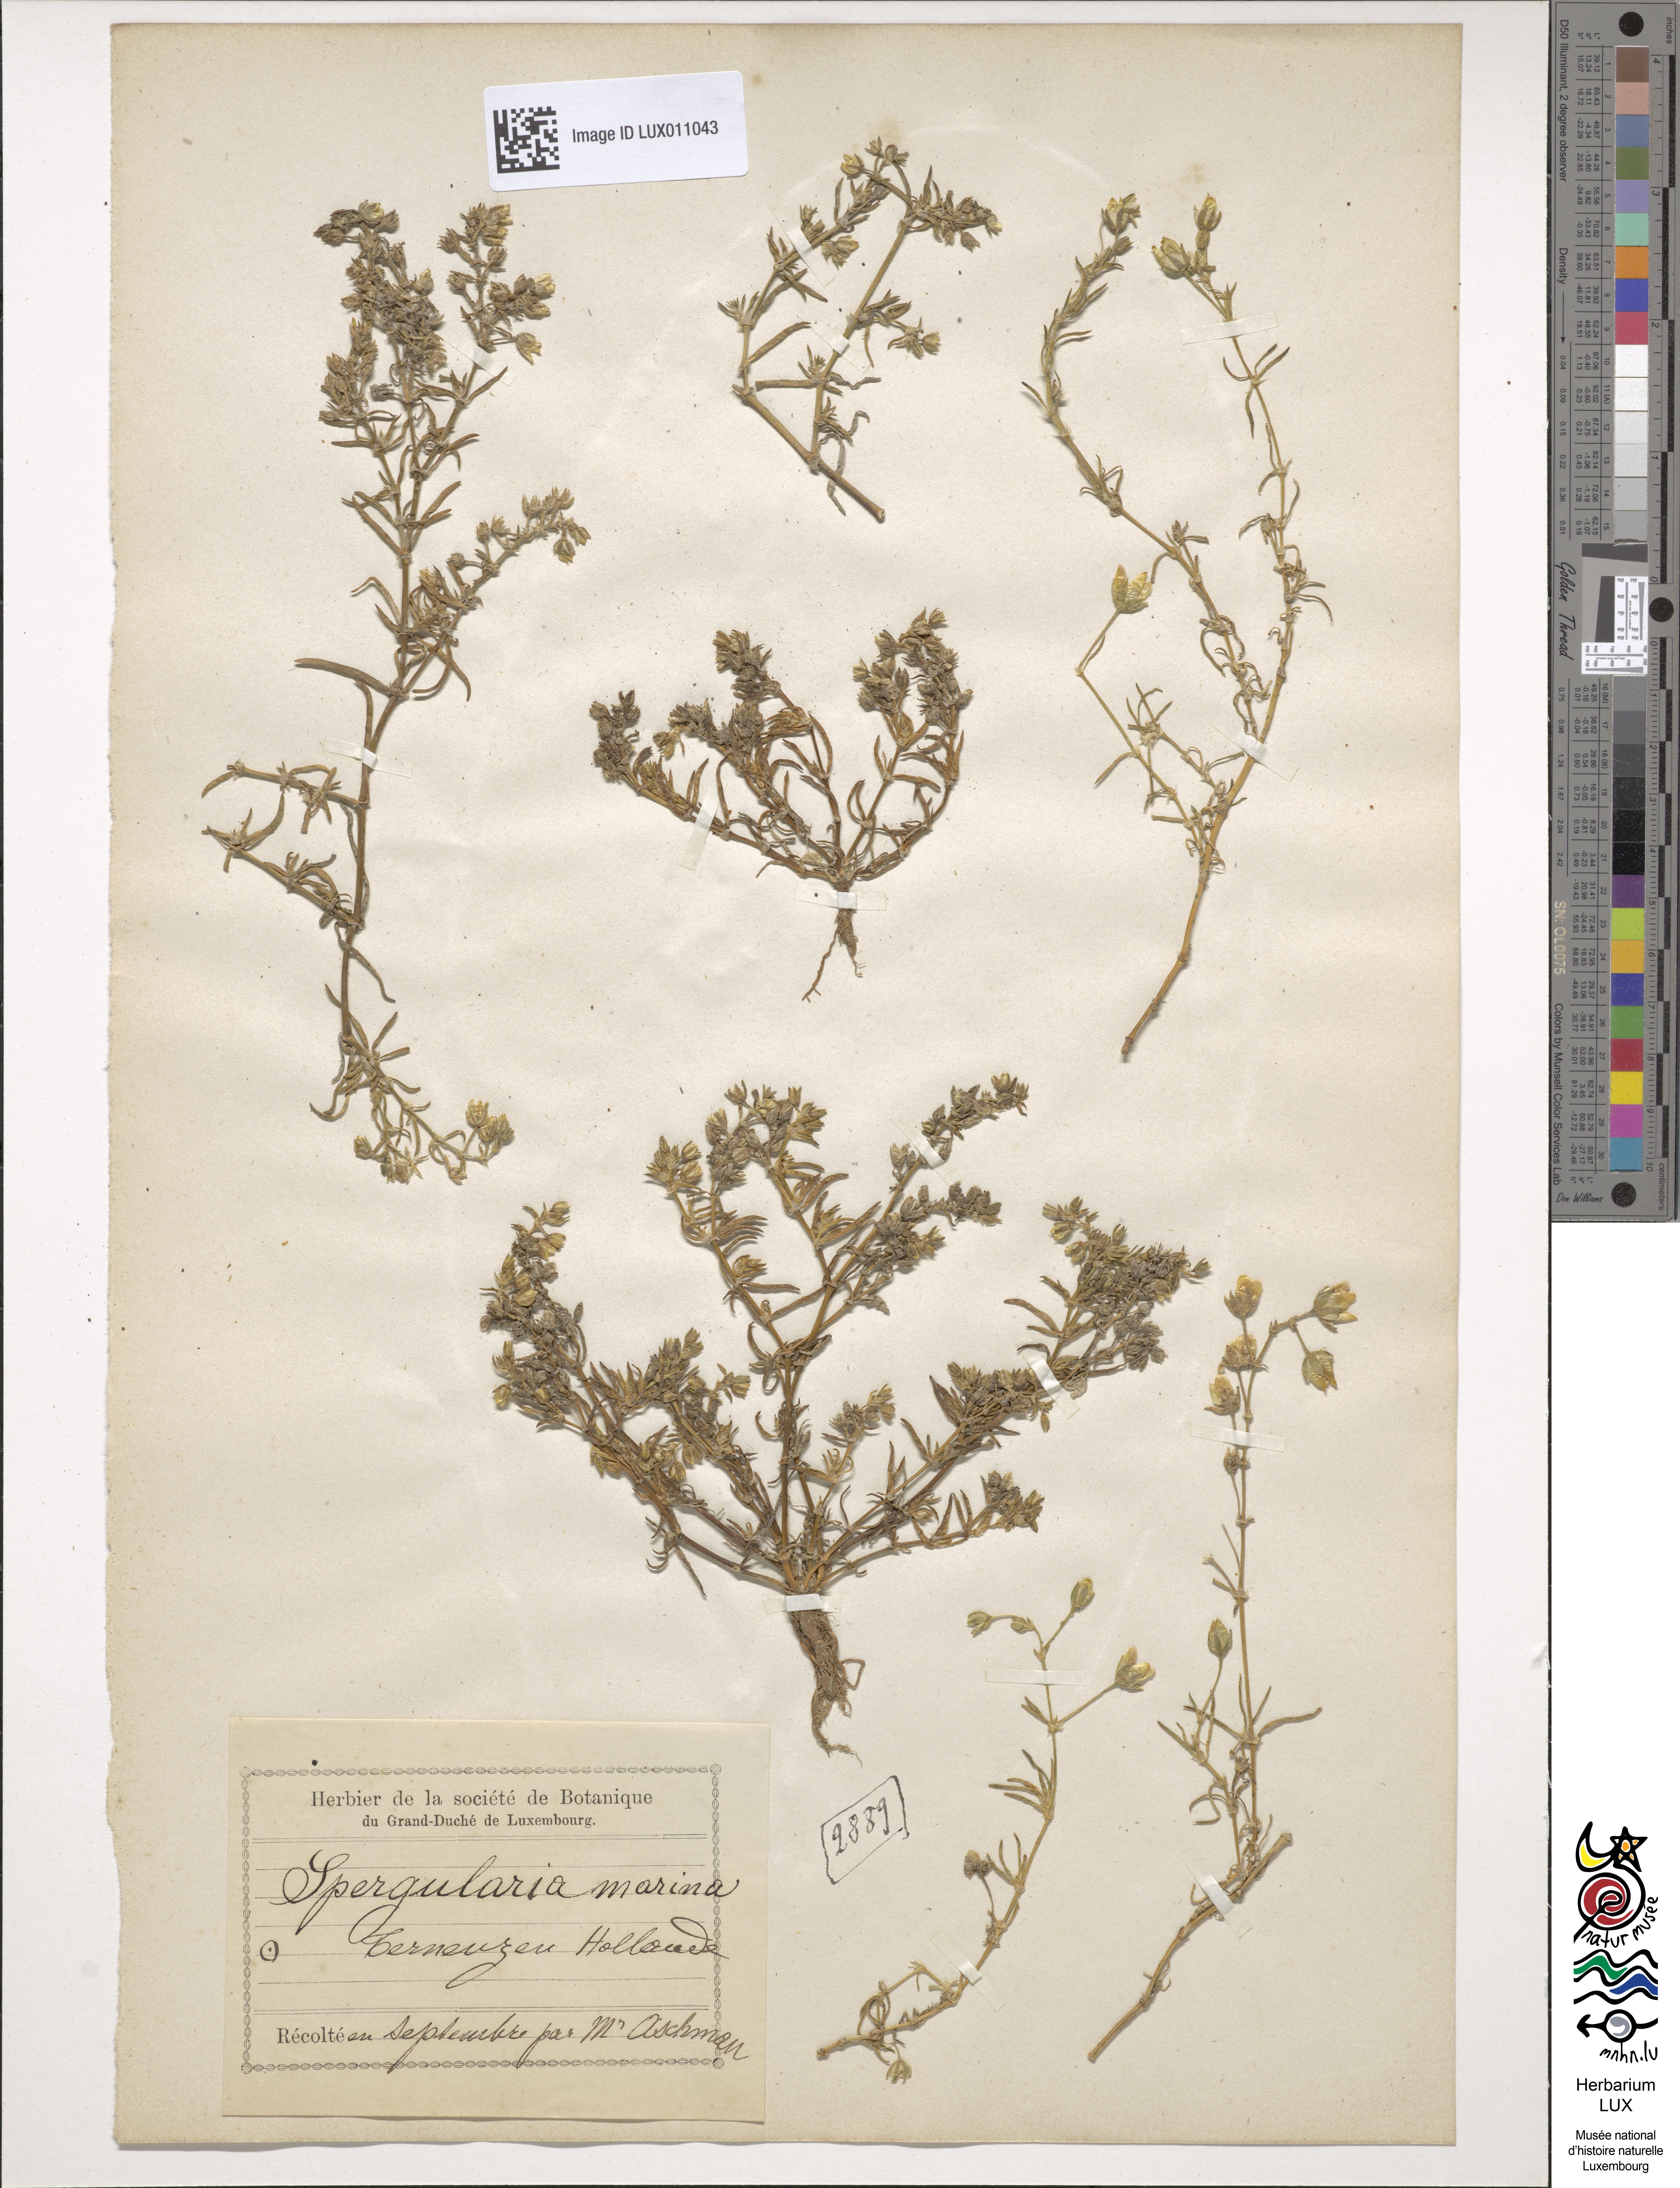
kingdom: Plantae
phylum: Tracheophyta
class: Magnoliopsida
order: Caryophyllales
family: Caryophyllaceae
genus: Spergularia
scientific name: Spergularia marina
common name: Lesser sea-spurrey
